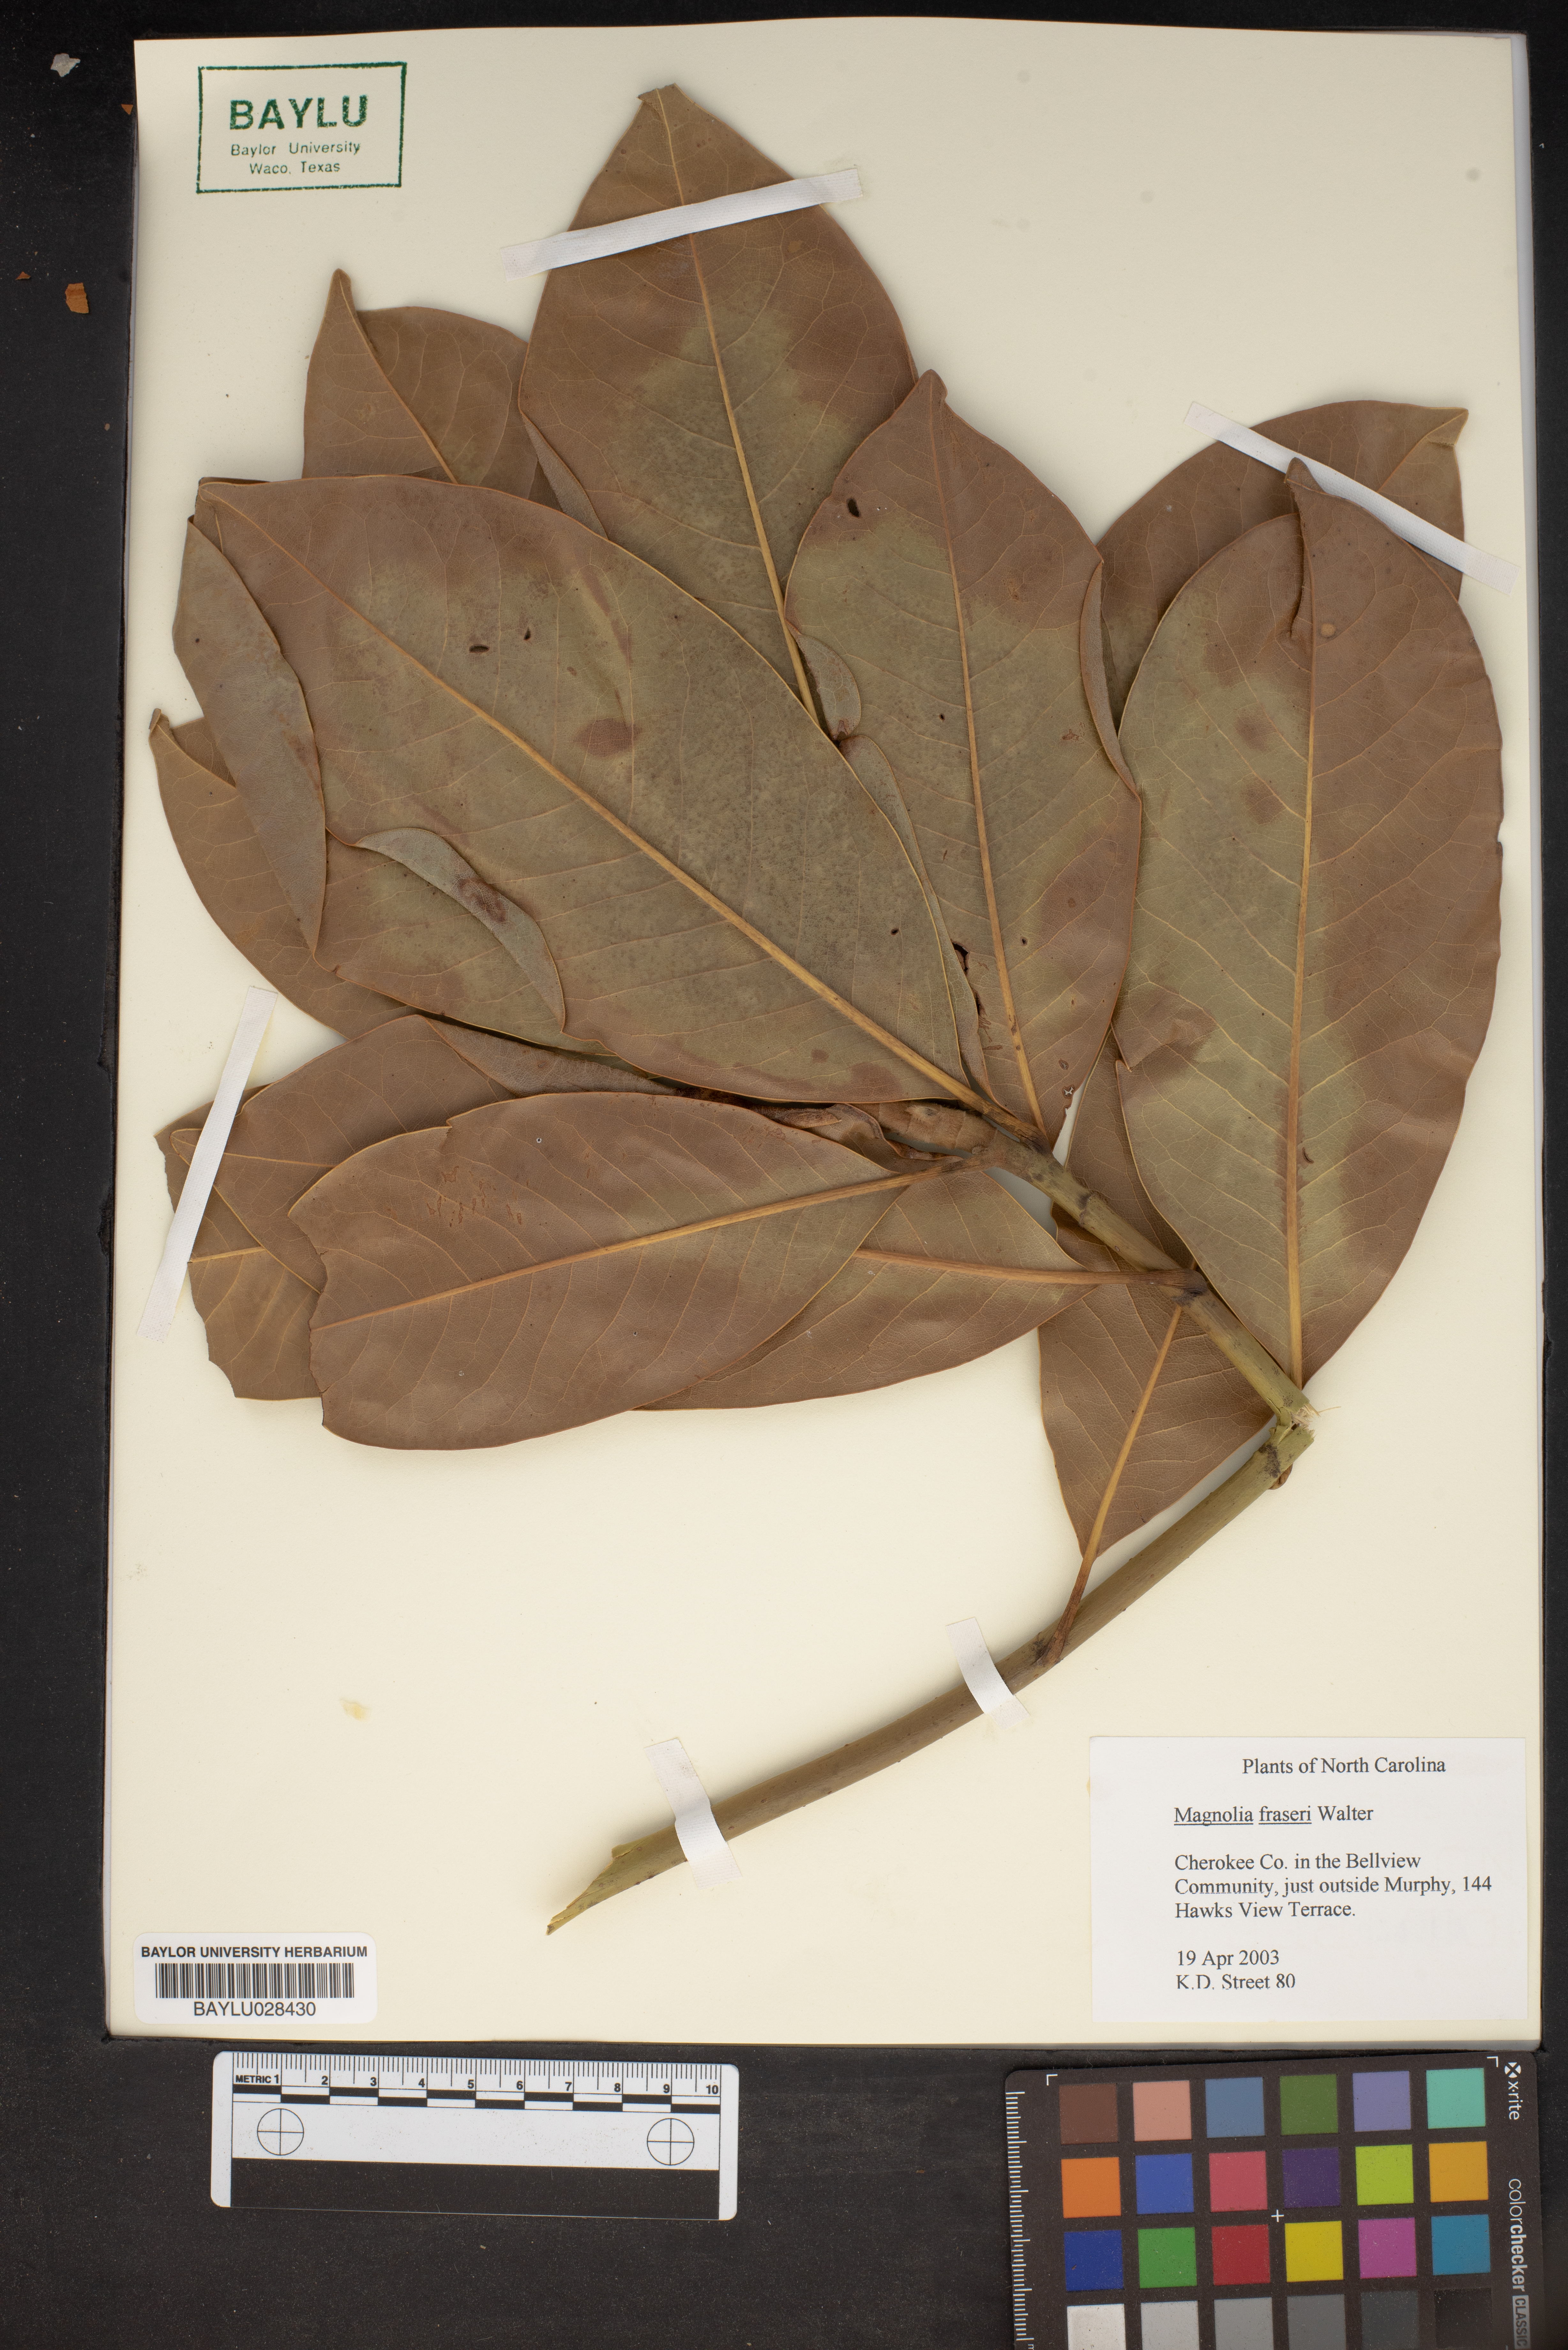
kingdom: Plantae
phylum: Tracheophyta
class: Magnoliopsida
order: Magnoliales
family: Magnoliaceae
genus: Magnolia
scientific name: Magnolia fraseri
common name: Fraser's magnolia
